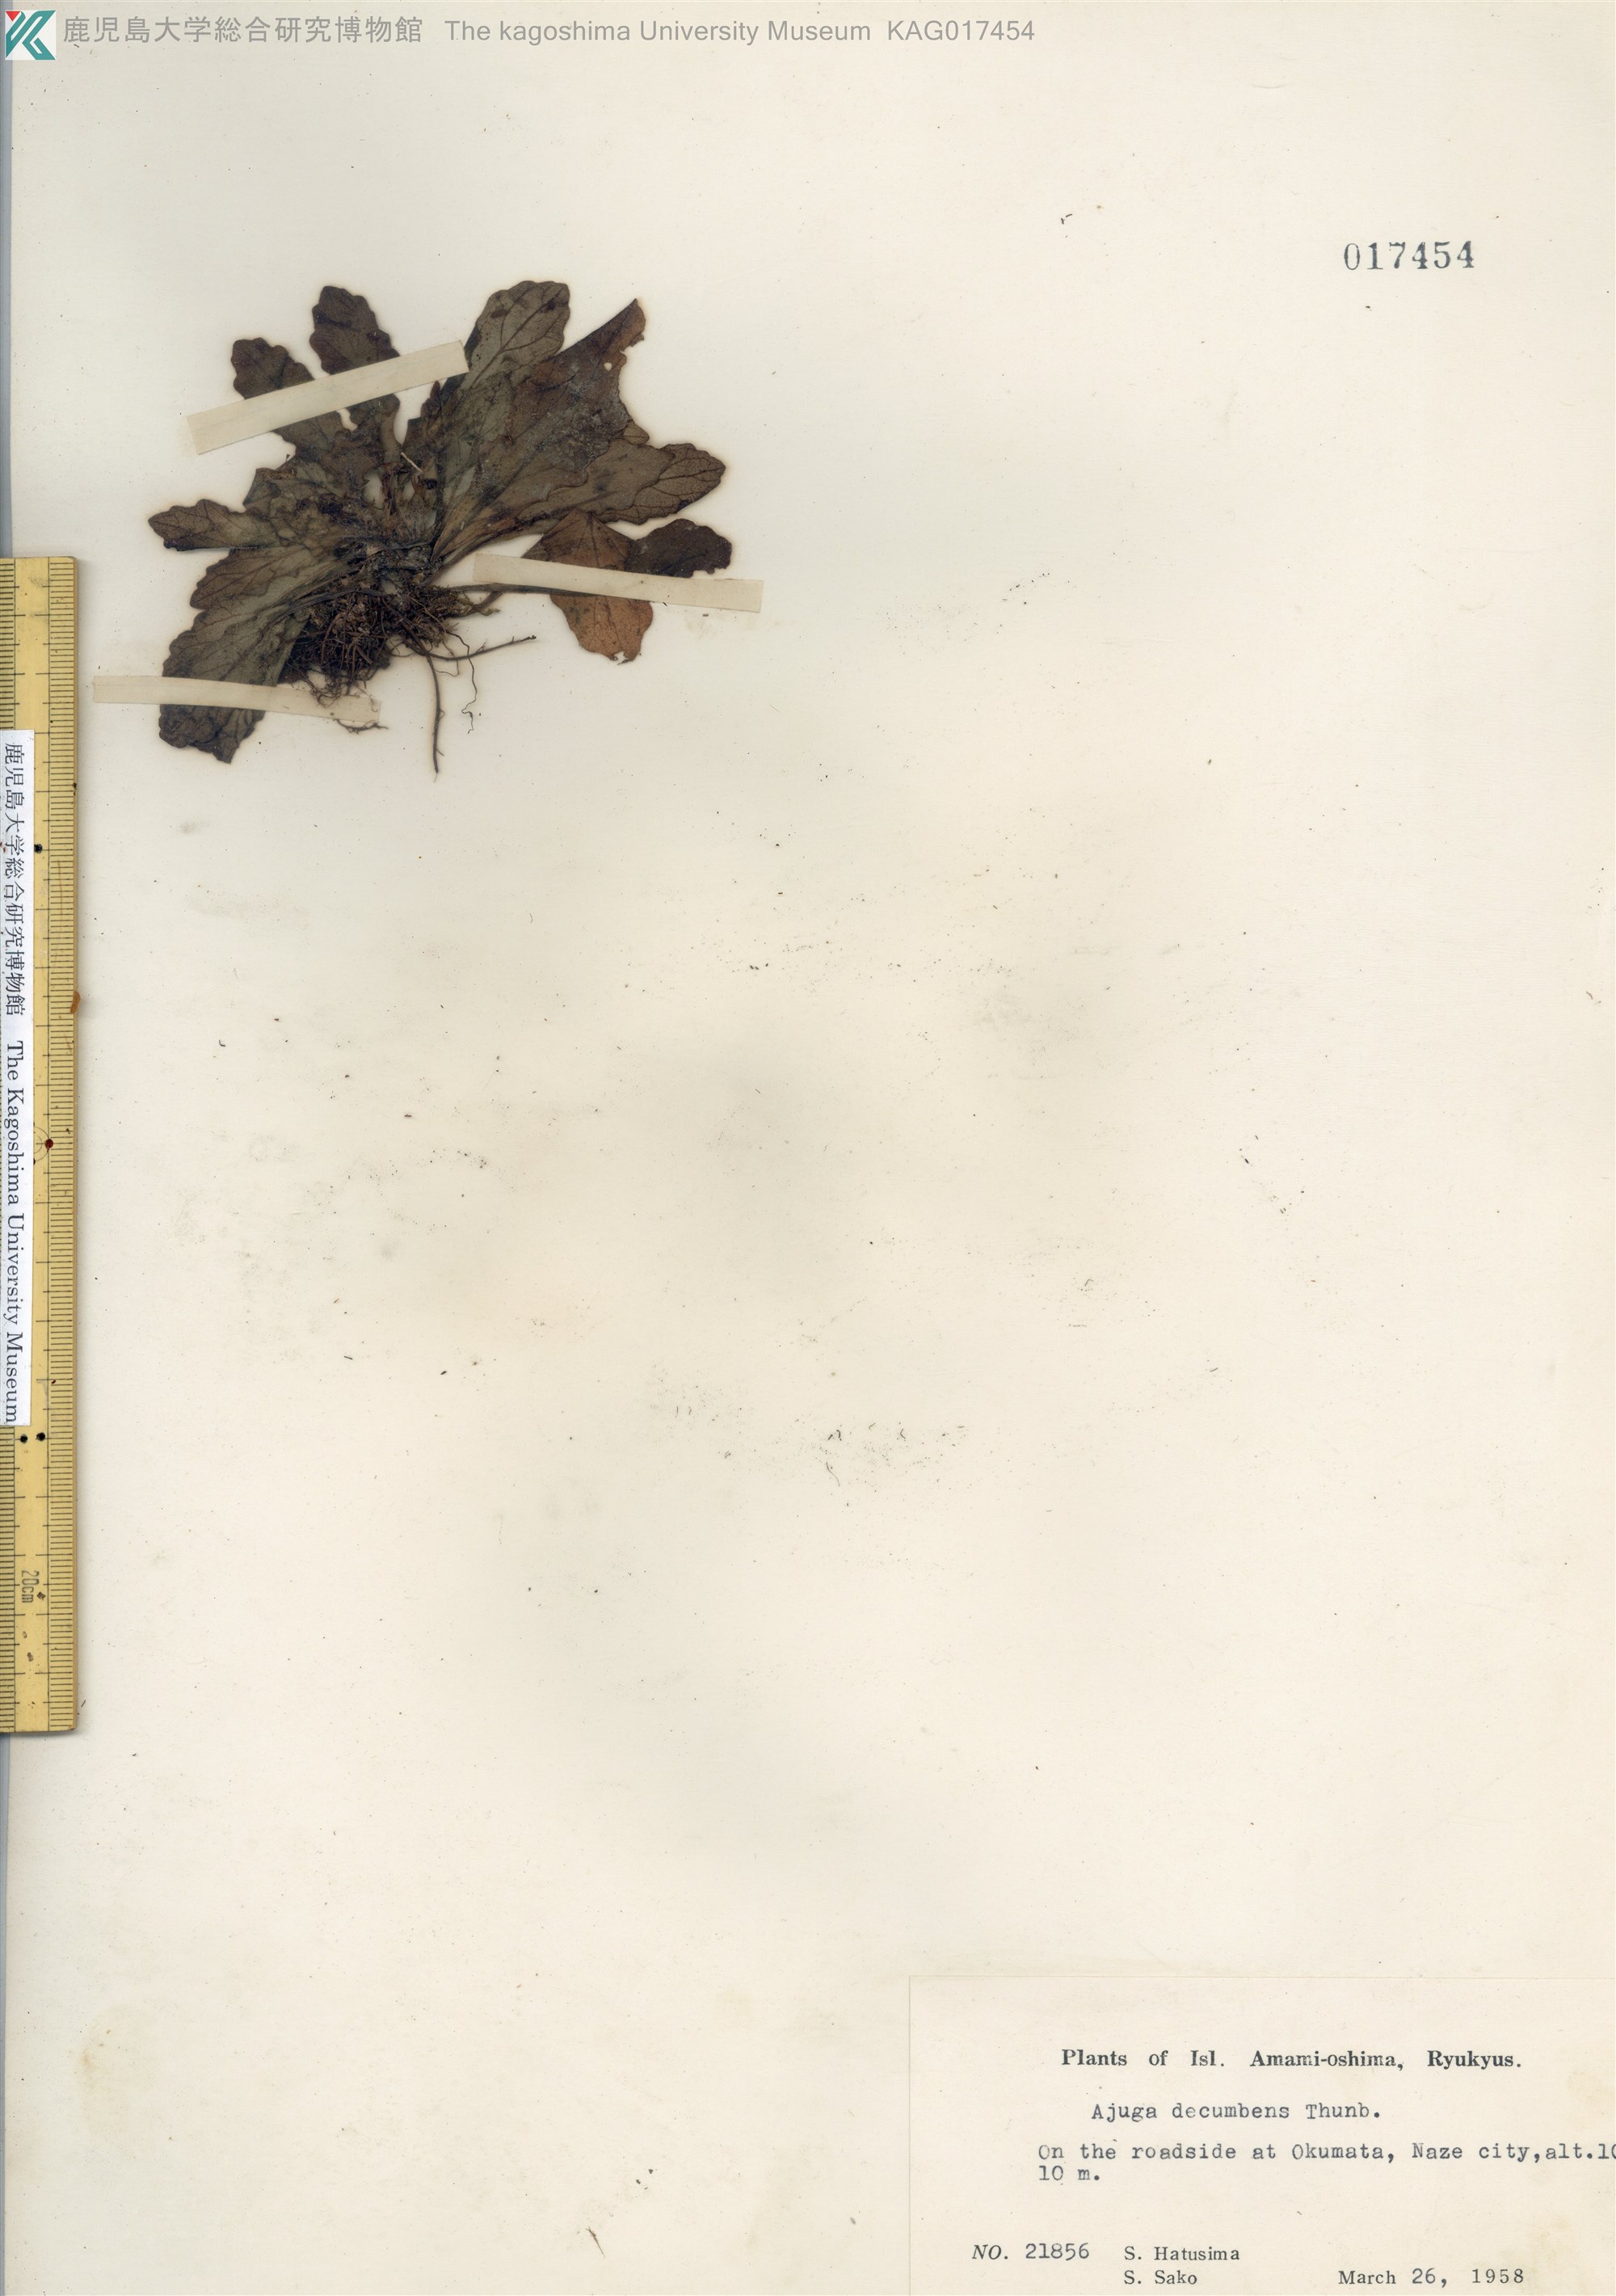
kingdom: Plantae
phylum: Tracheophyta
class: Magnoliopsida
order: Lamiales
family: Lamiaceae
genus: Ajuga
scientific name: Ajuga decumbens
